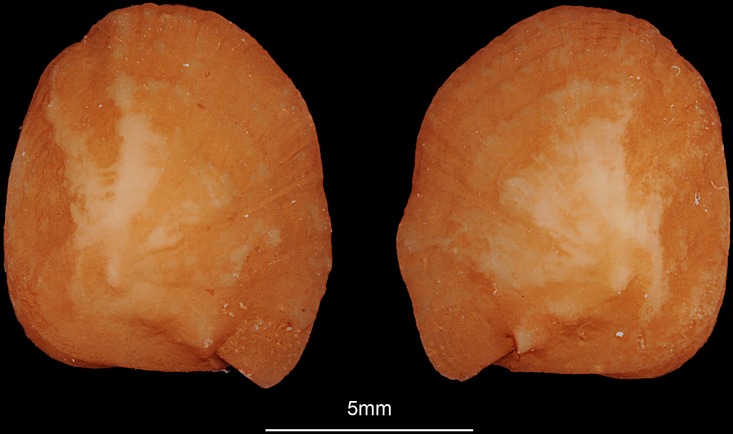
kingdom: Animalia
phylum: Chordata
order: Siluriformes
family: Ariidae
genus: Galeichthys
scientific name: Galeichthys feliceps
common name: White seacatfish
